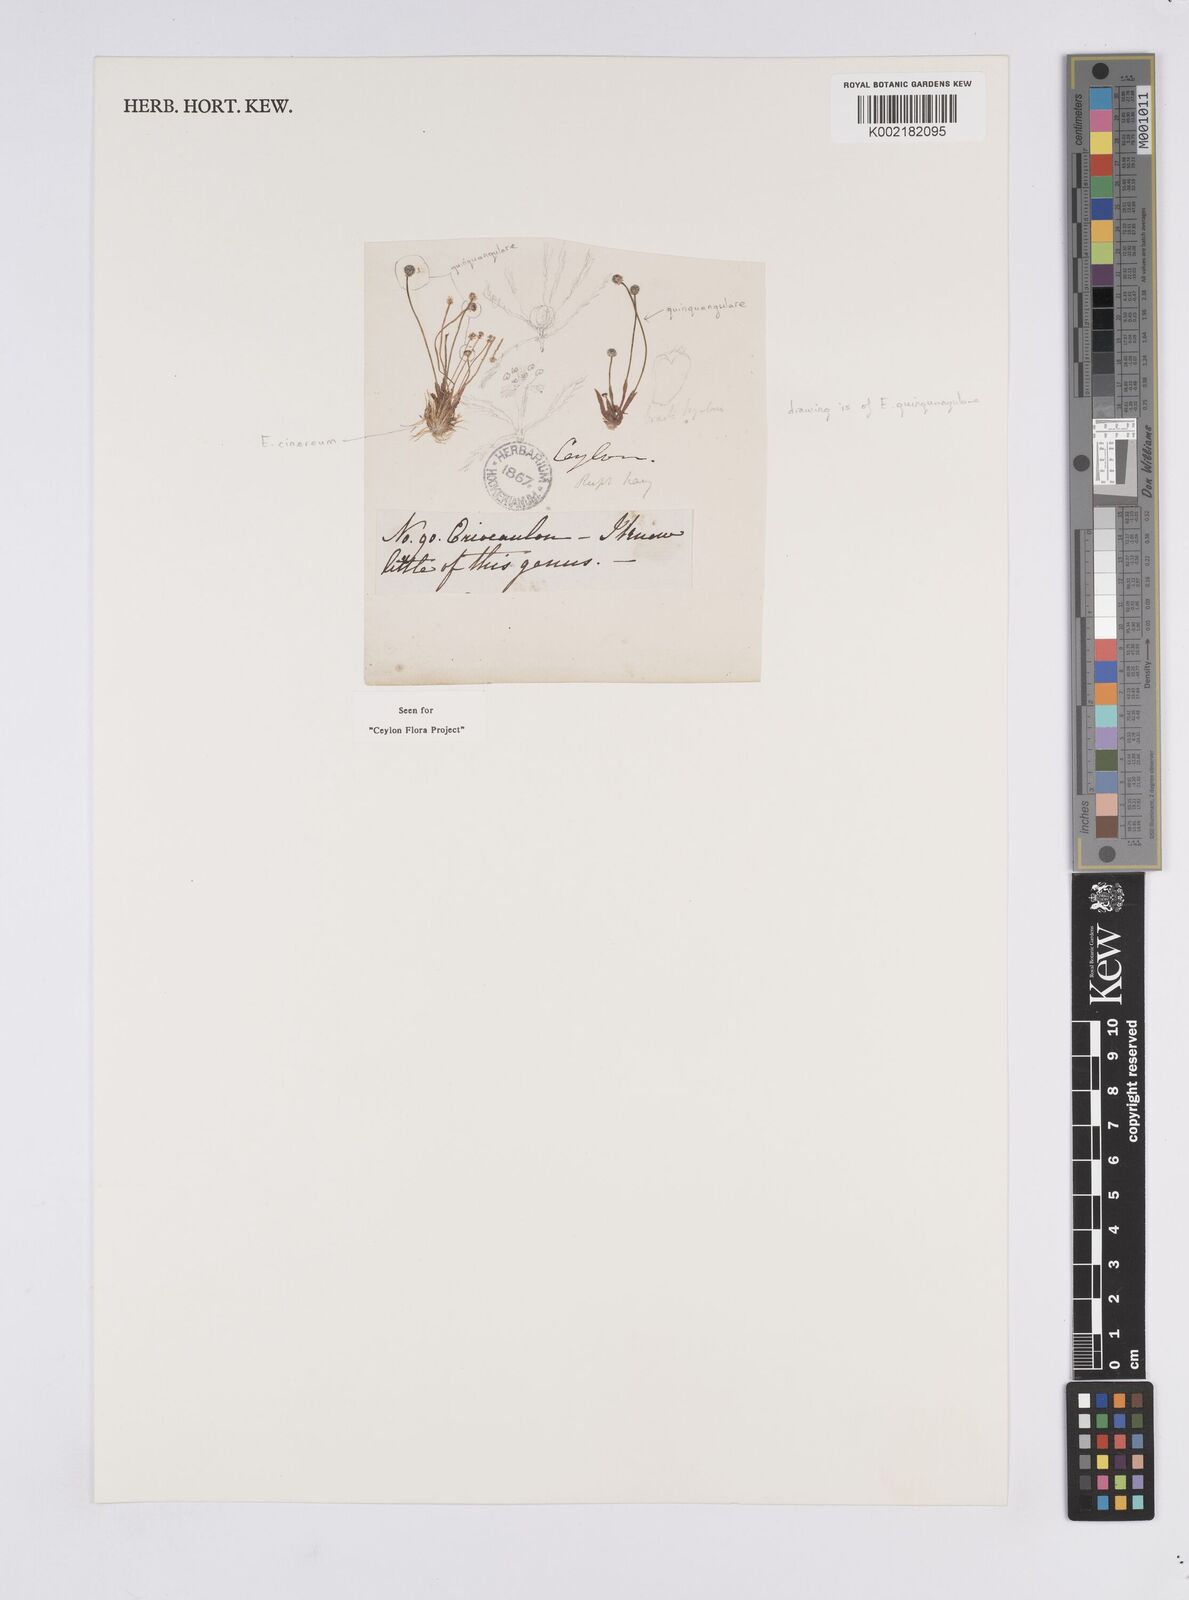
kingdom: Plantae
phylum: Tracheophyta
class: Liliopsida
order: Poales
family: Eriocaulaceae
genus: Eriocaulon
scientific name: Eriocaulon cinereum
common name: Ashy pipewort
